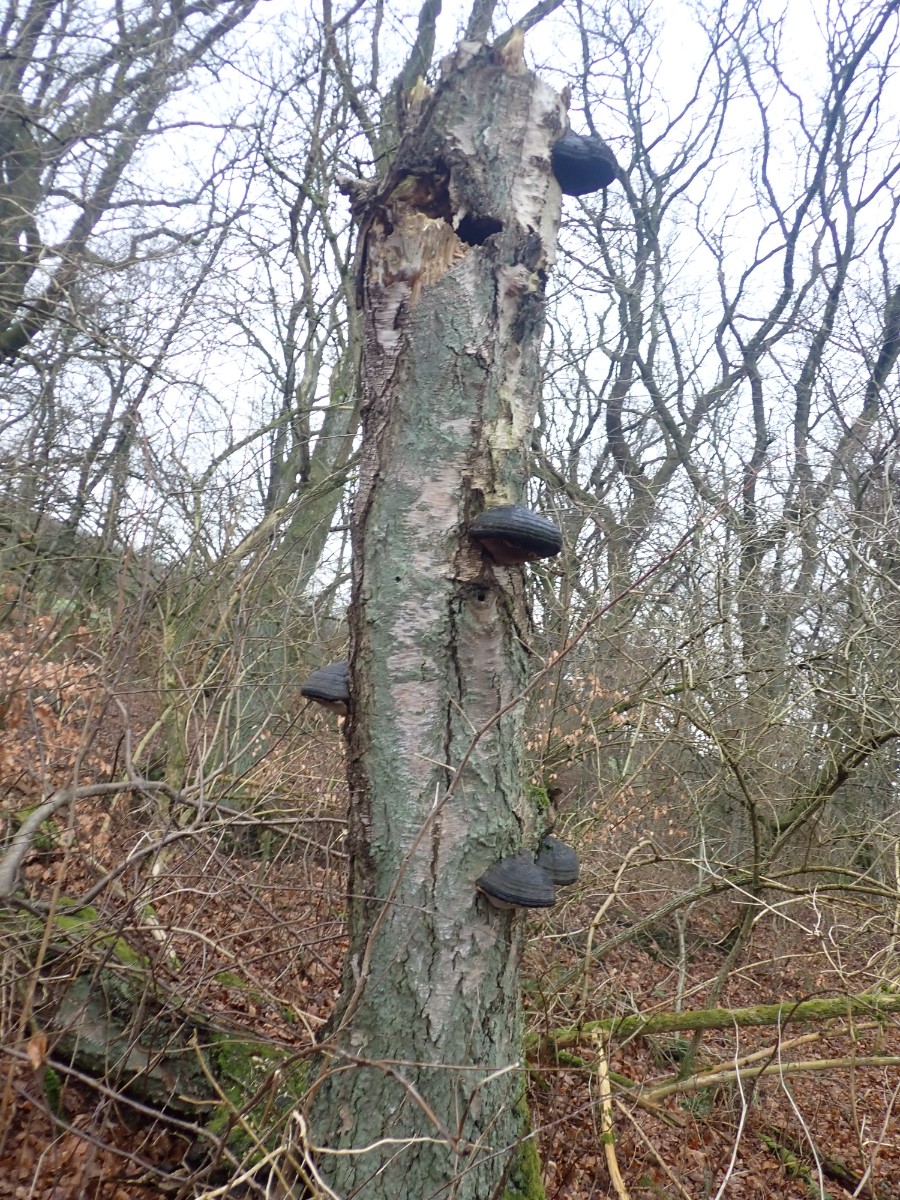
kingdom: Fungi
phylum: Basidiomycota
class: Agaricomycetes
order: Polyporales
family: Polyporaceae
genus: Fomes
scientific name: Fomes fomentarius
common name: tøndersvamp
